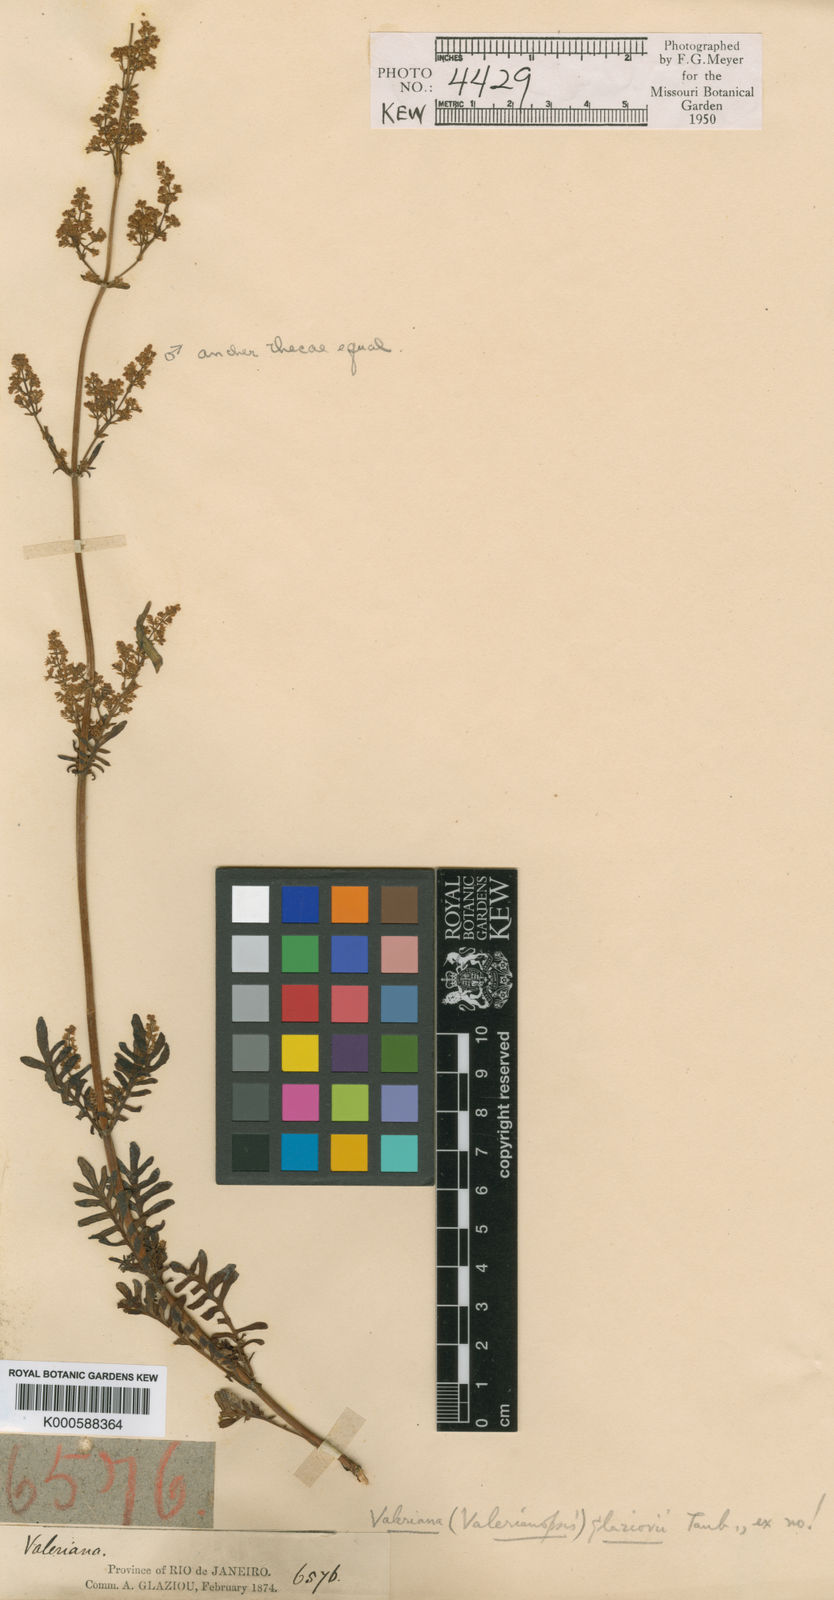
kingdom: Plantae
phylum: Tracheophyta
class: Magnoliopsida
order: Dipsacales
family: Caprifoliaceae
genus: Valeriana
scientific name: Valeriana glaziovii
